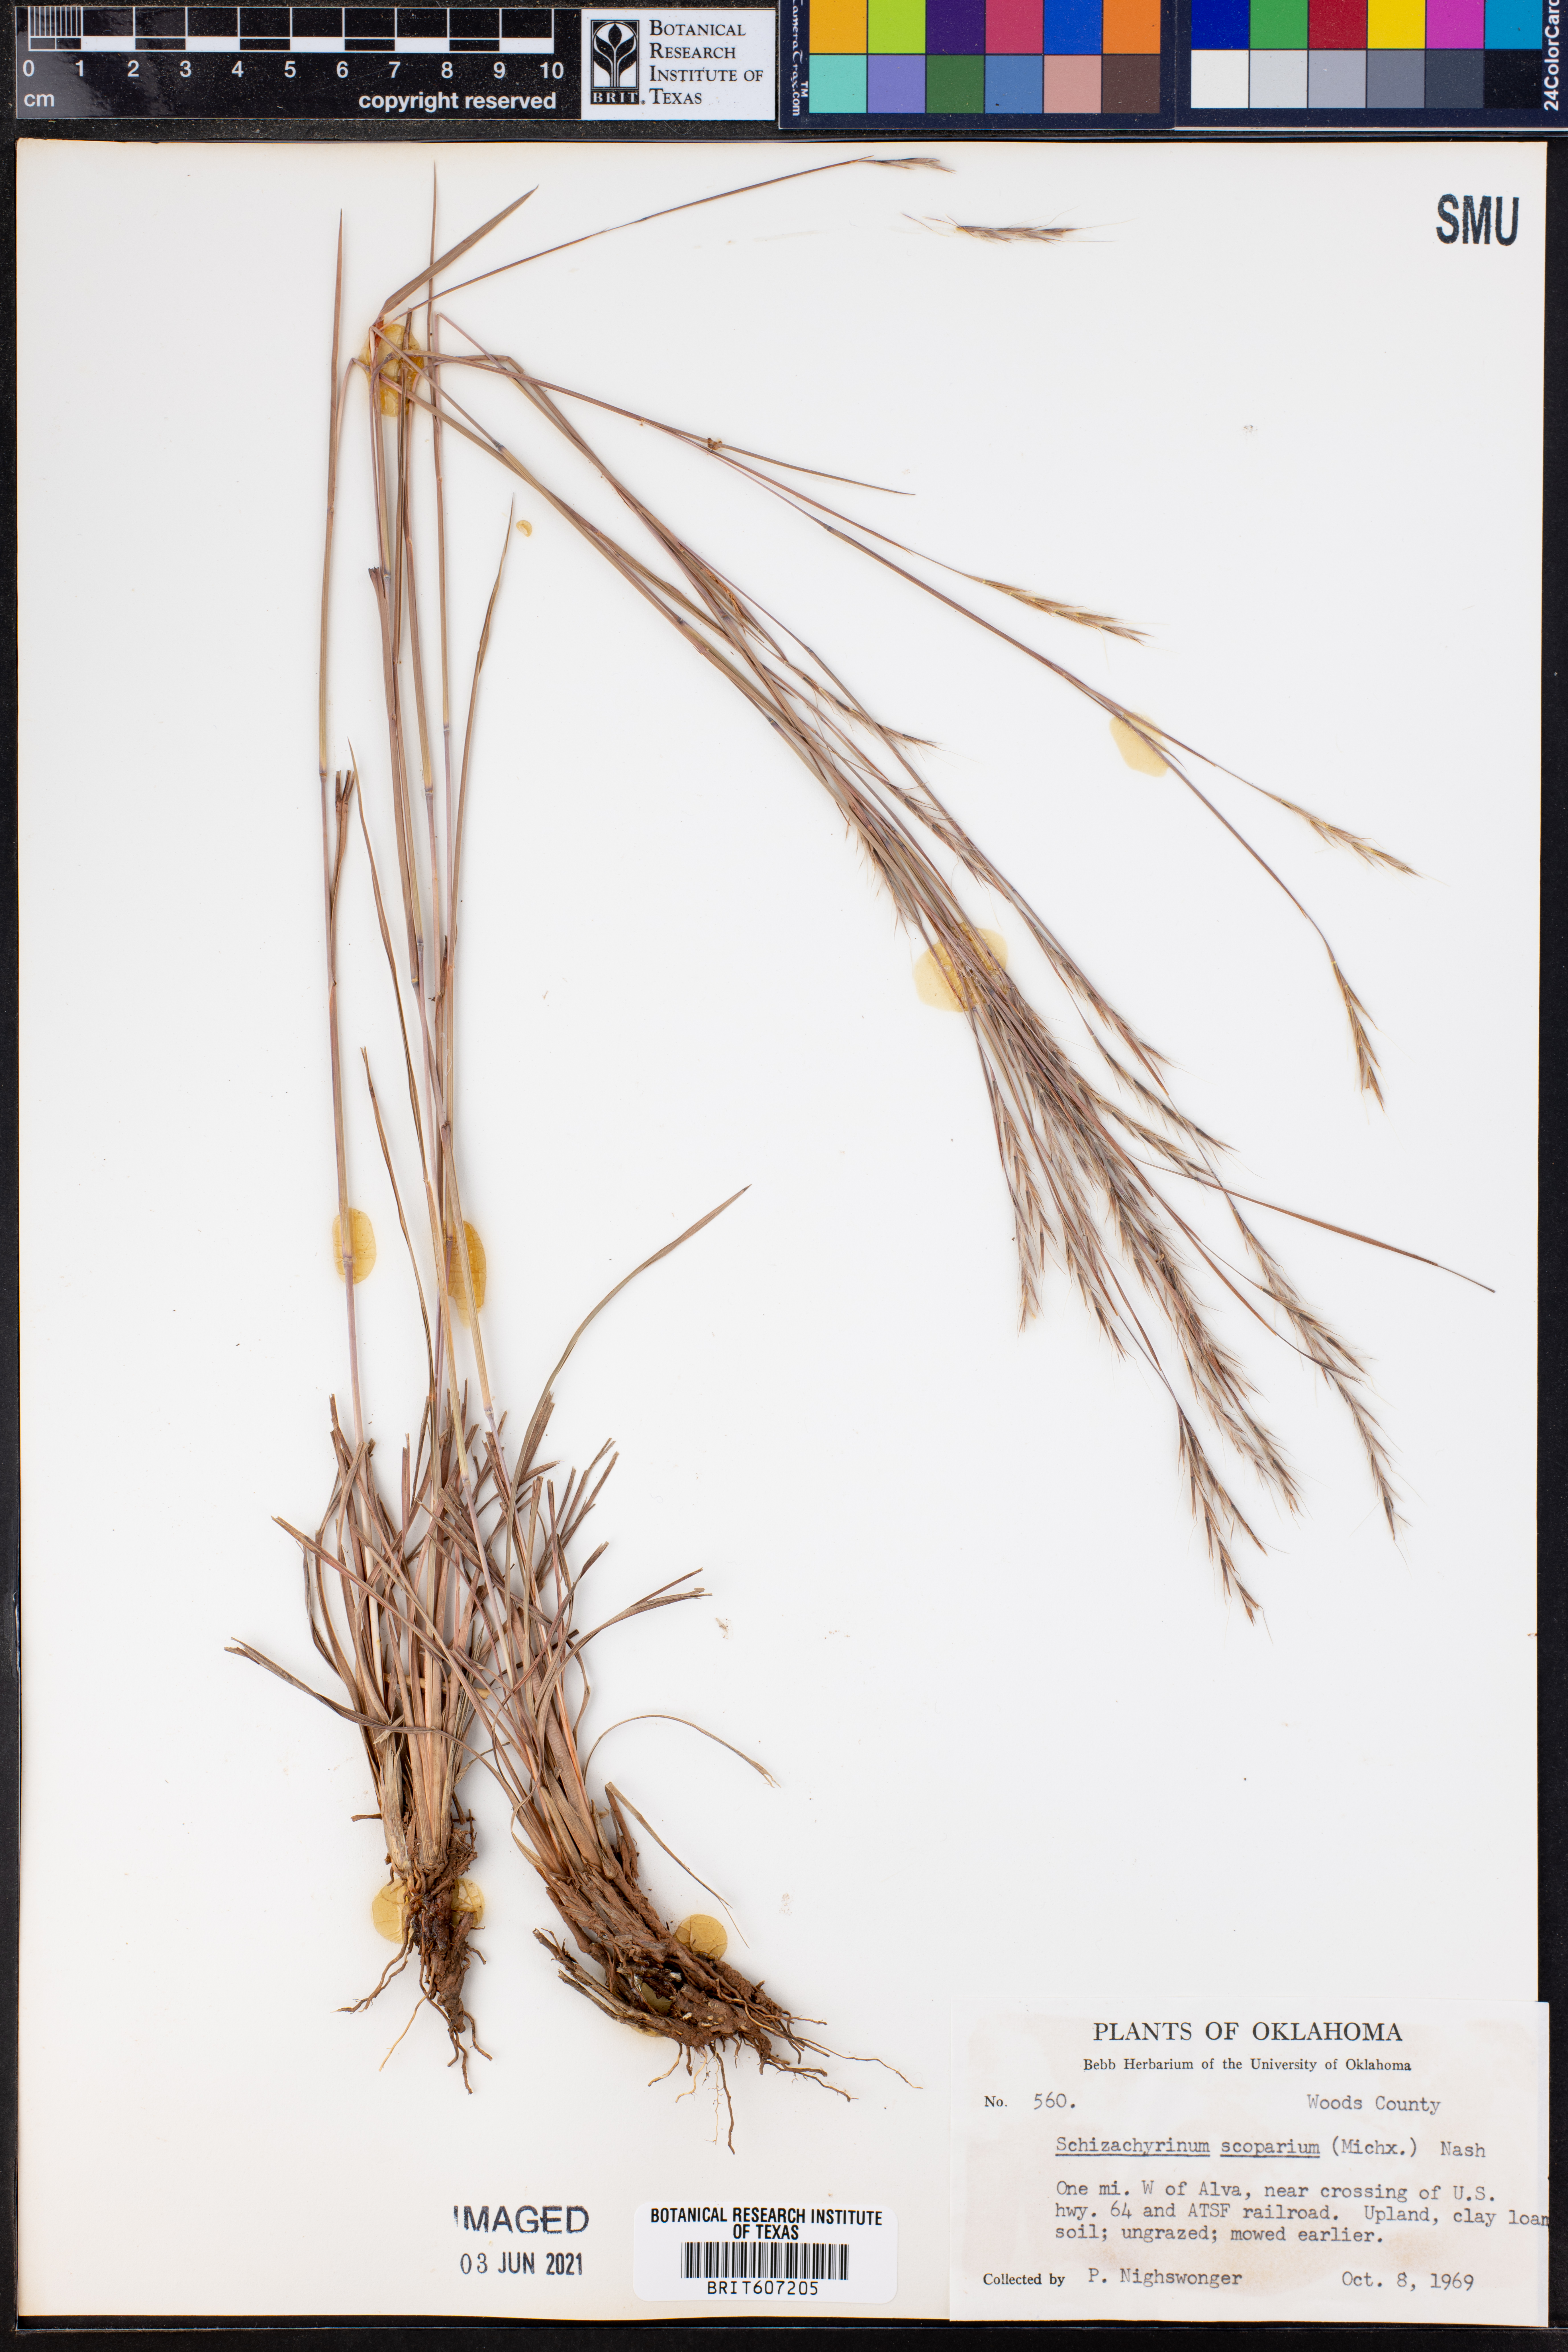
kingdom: Plantae
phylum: Tracheophyta
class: Liliopsida
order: Poales
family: Poaceae
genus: Schizachyrium
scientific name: Schizachyrium scoparium
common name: Little bluestem
